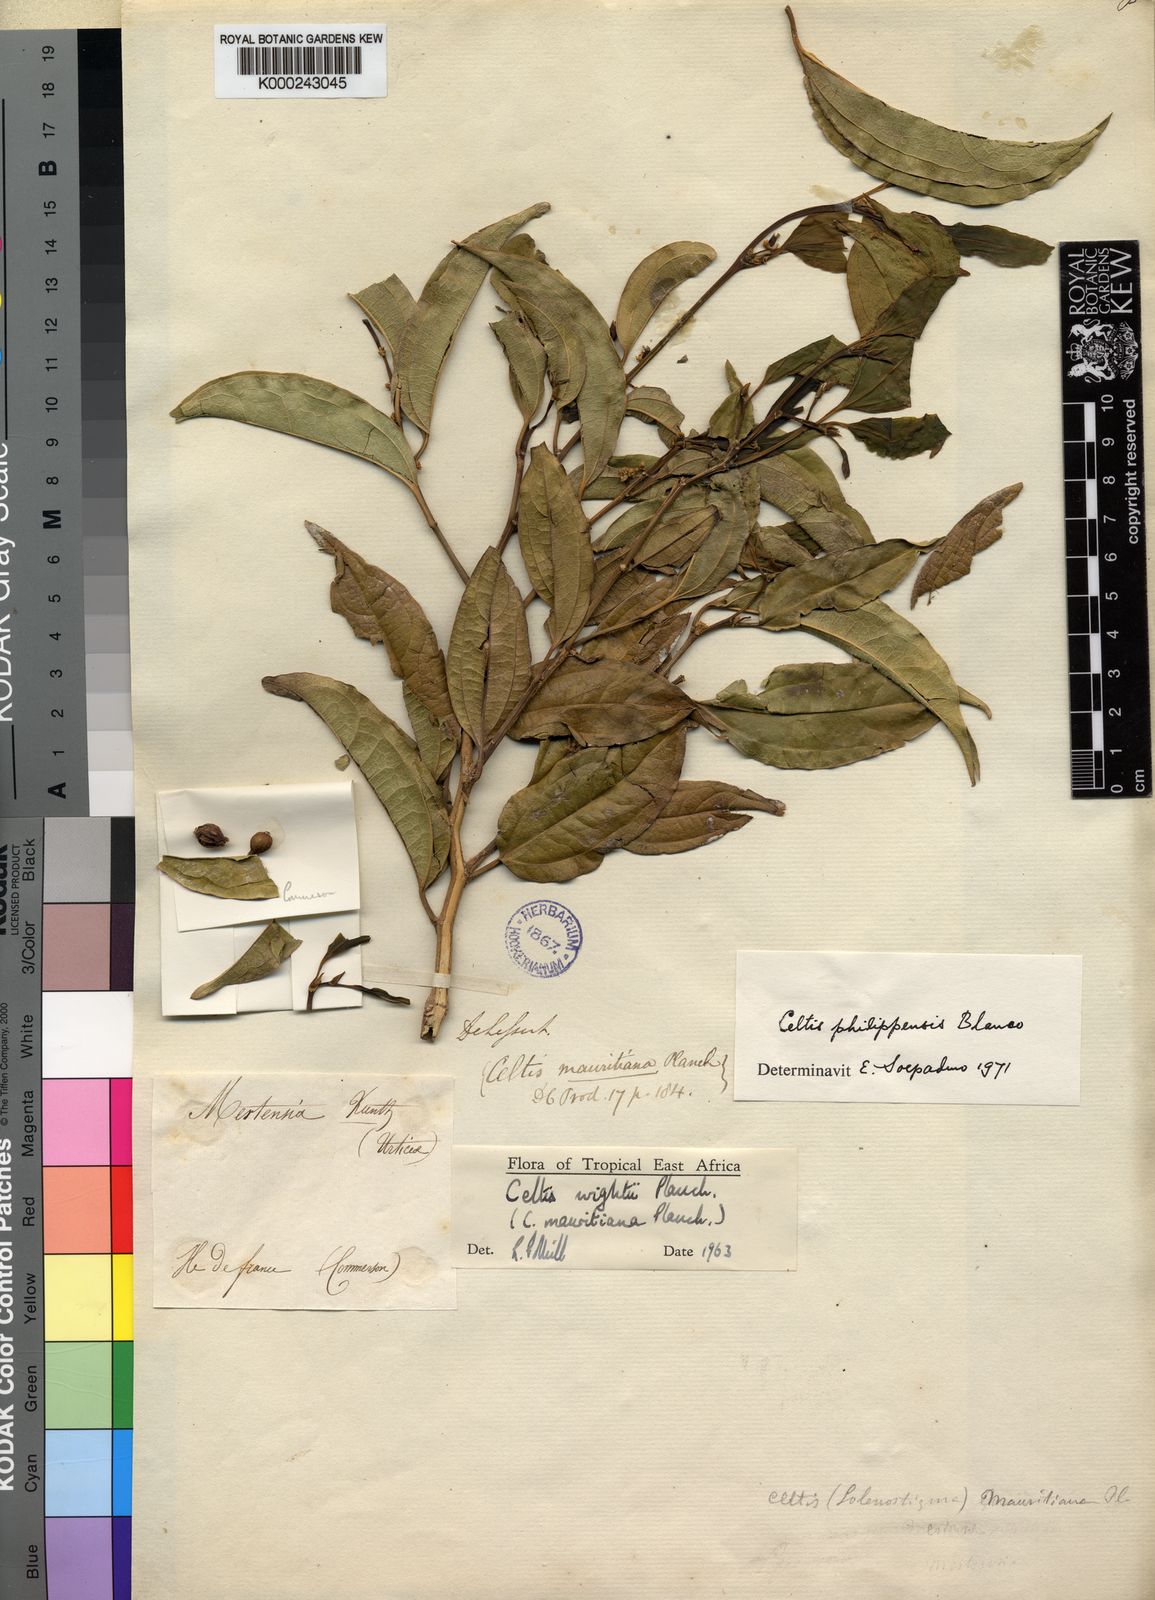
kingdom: Plantae
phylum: Tracheophyta
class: Magnoliopsida
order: Rosales
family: Cannabaceae
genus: Celtis
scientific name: Celtis philippensis
